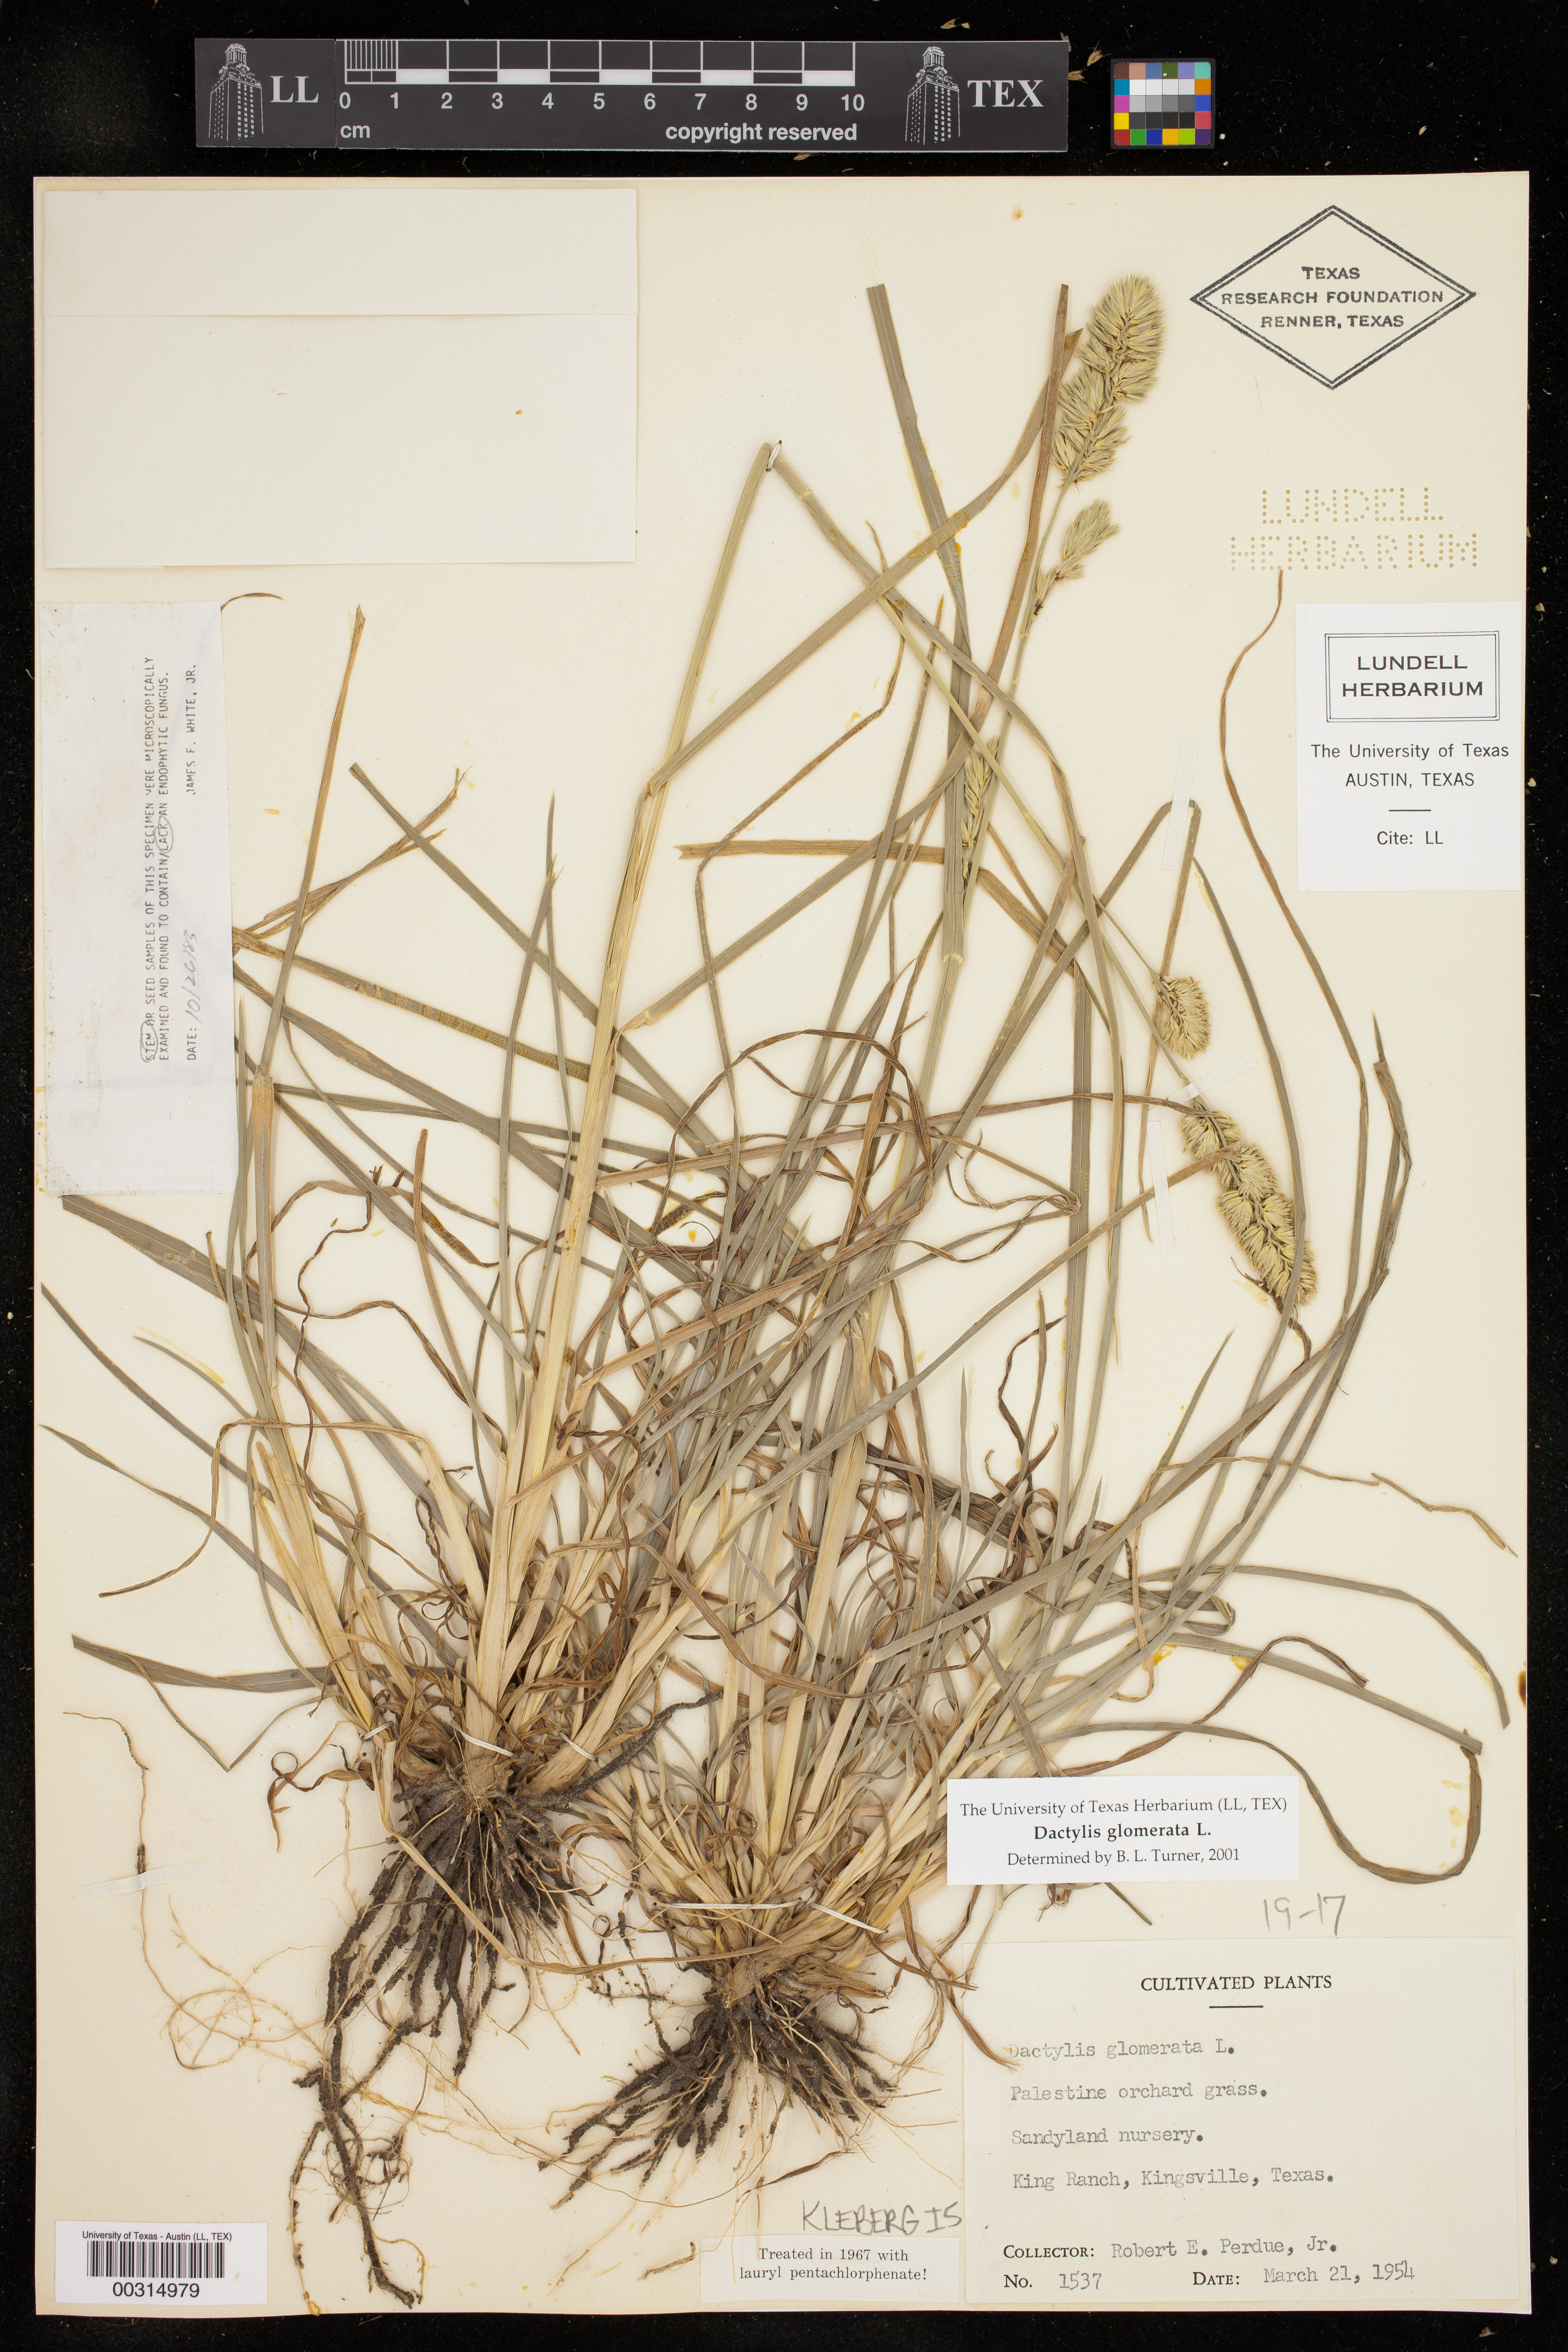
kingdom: Plantae
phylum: Tracheophyta
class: Liliopsida
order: Poales
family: Poaceae
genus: Dactylis
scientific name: Dactylis glomerata
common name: Orchardgrass
